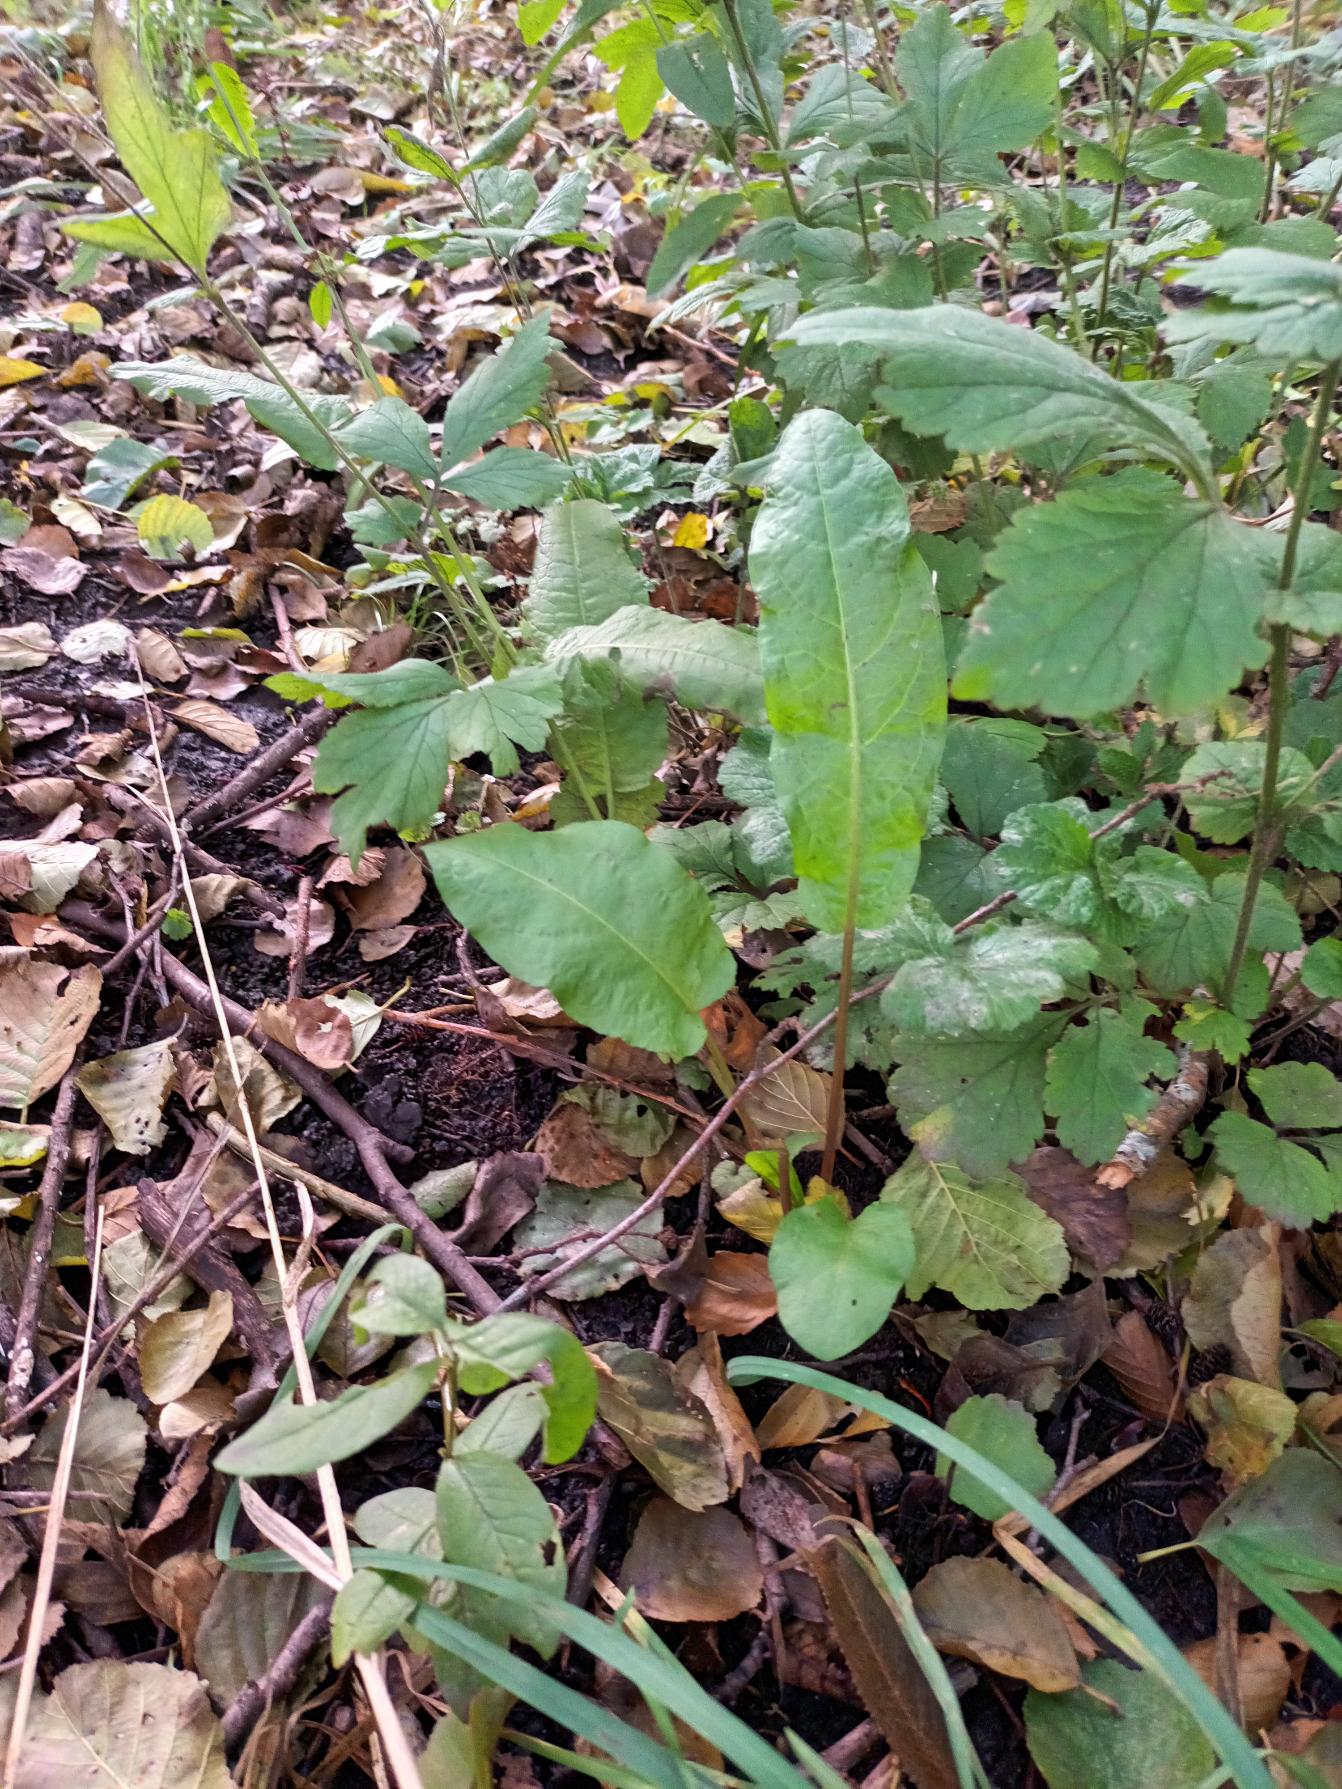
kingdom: Plantae
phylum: Tracheophyta
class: Magnoliopsida
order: Caryophyllales
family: Polygonaceae
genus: Rumex
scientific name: Rumex sanguineus
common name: Skov-skræppe
